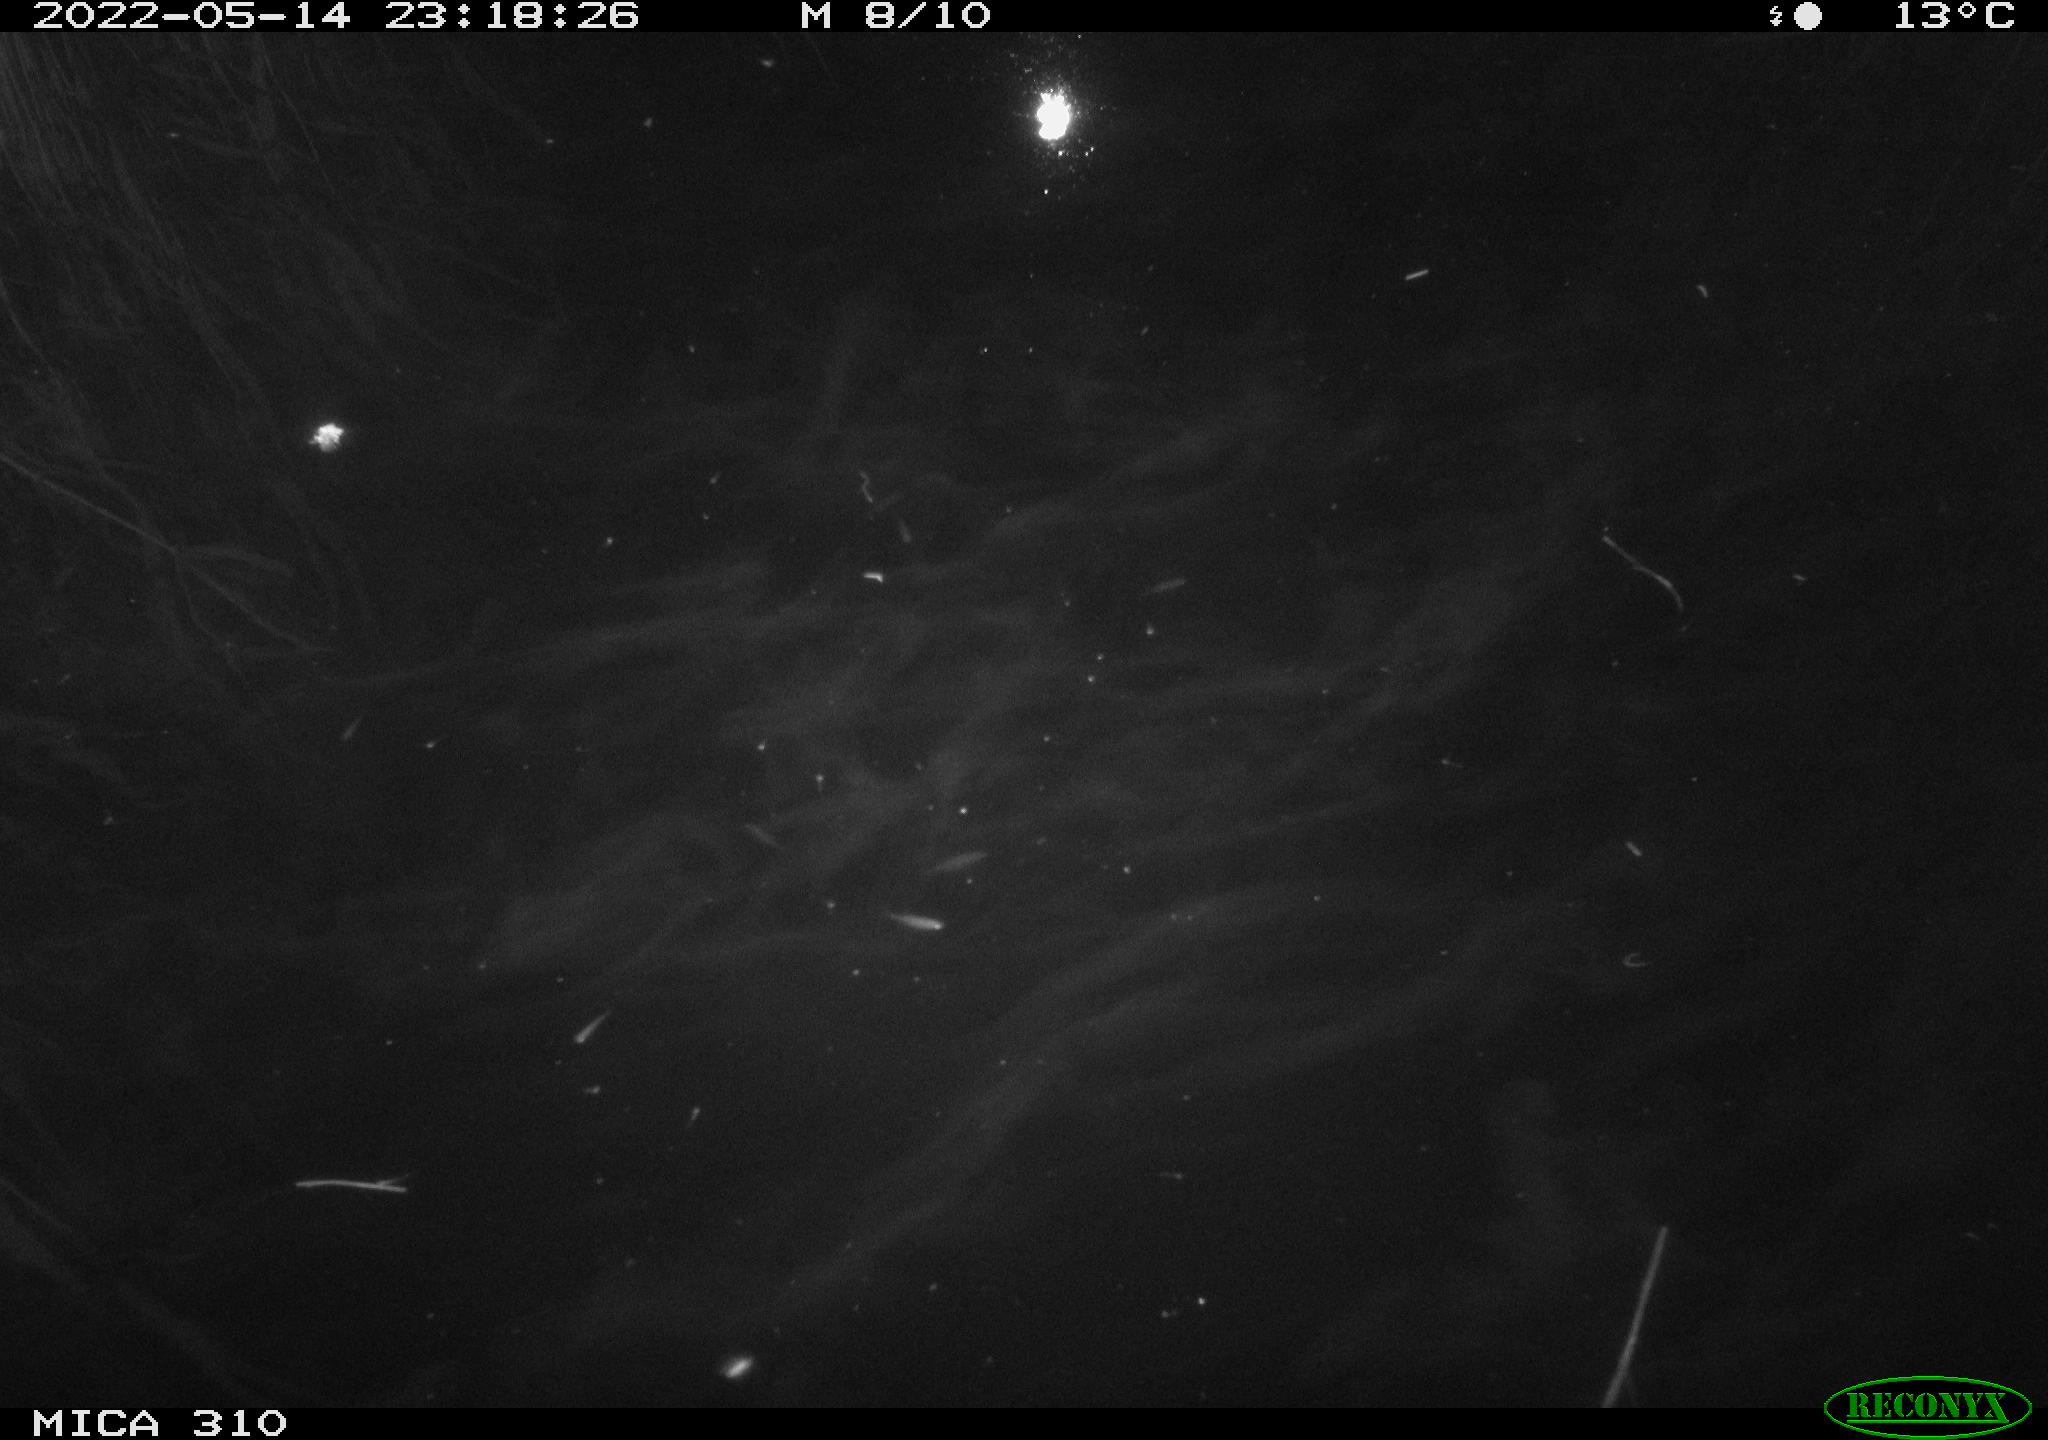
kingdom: Animalia
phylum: Chordata
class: Aves
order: Anseriformes
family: Anatidae
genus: Anas
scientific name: Anas platyrhynchos
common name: Mallard
